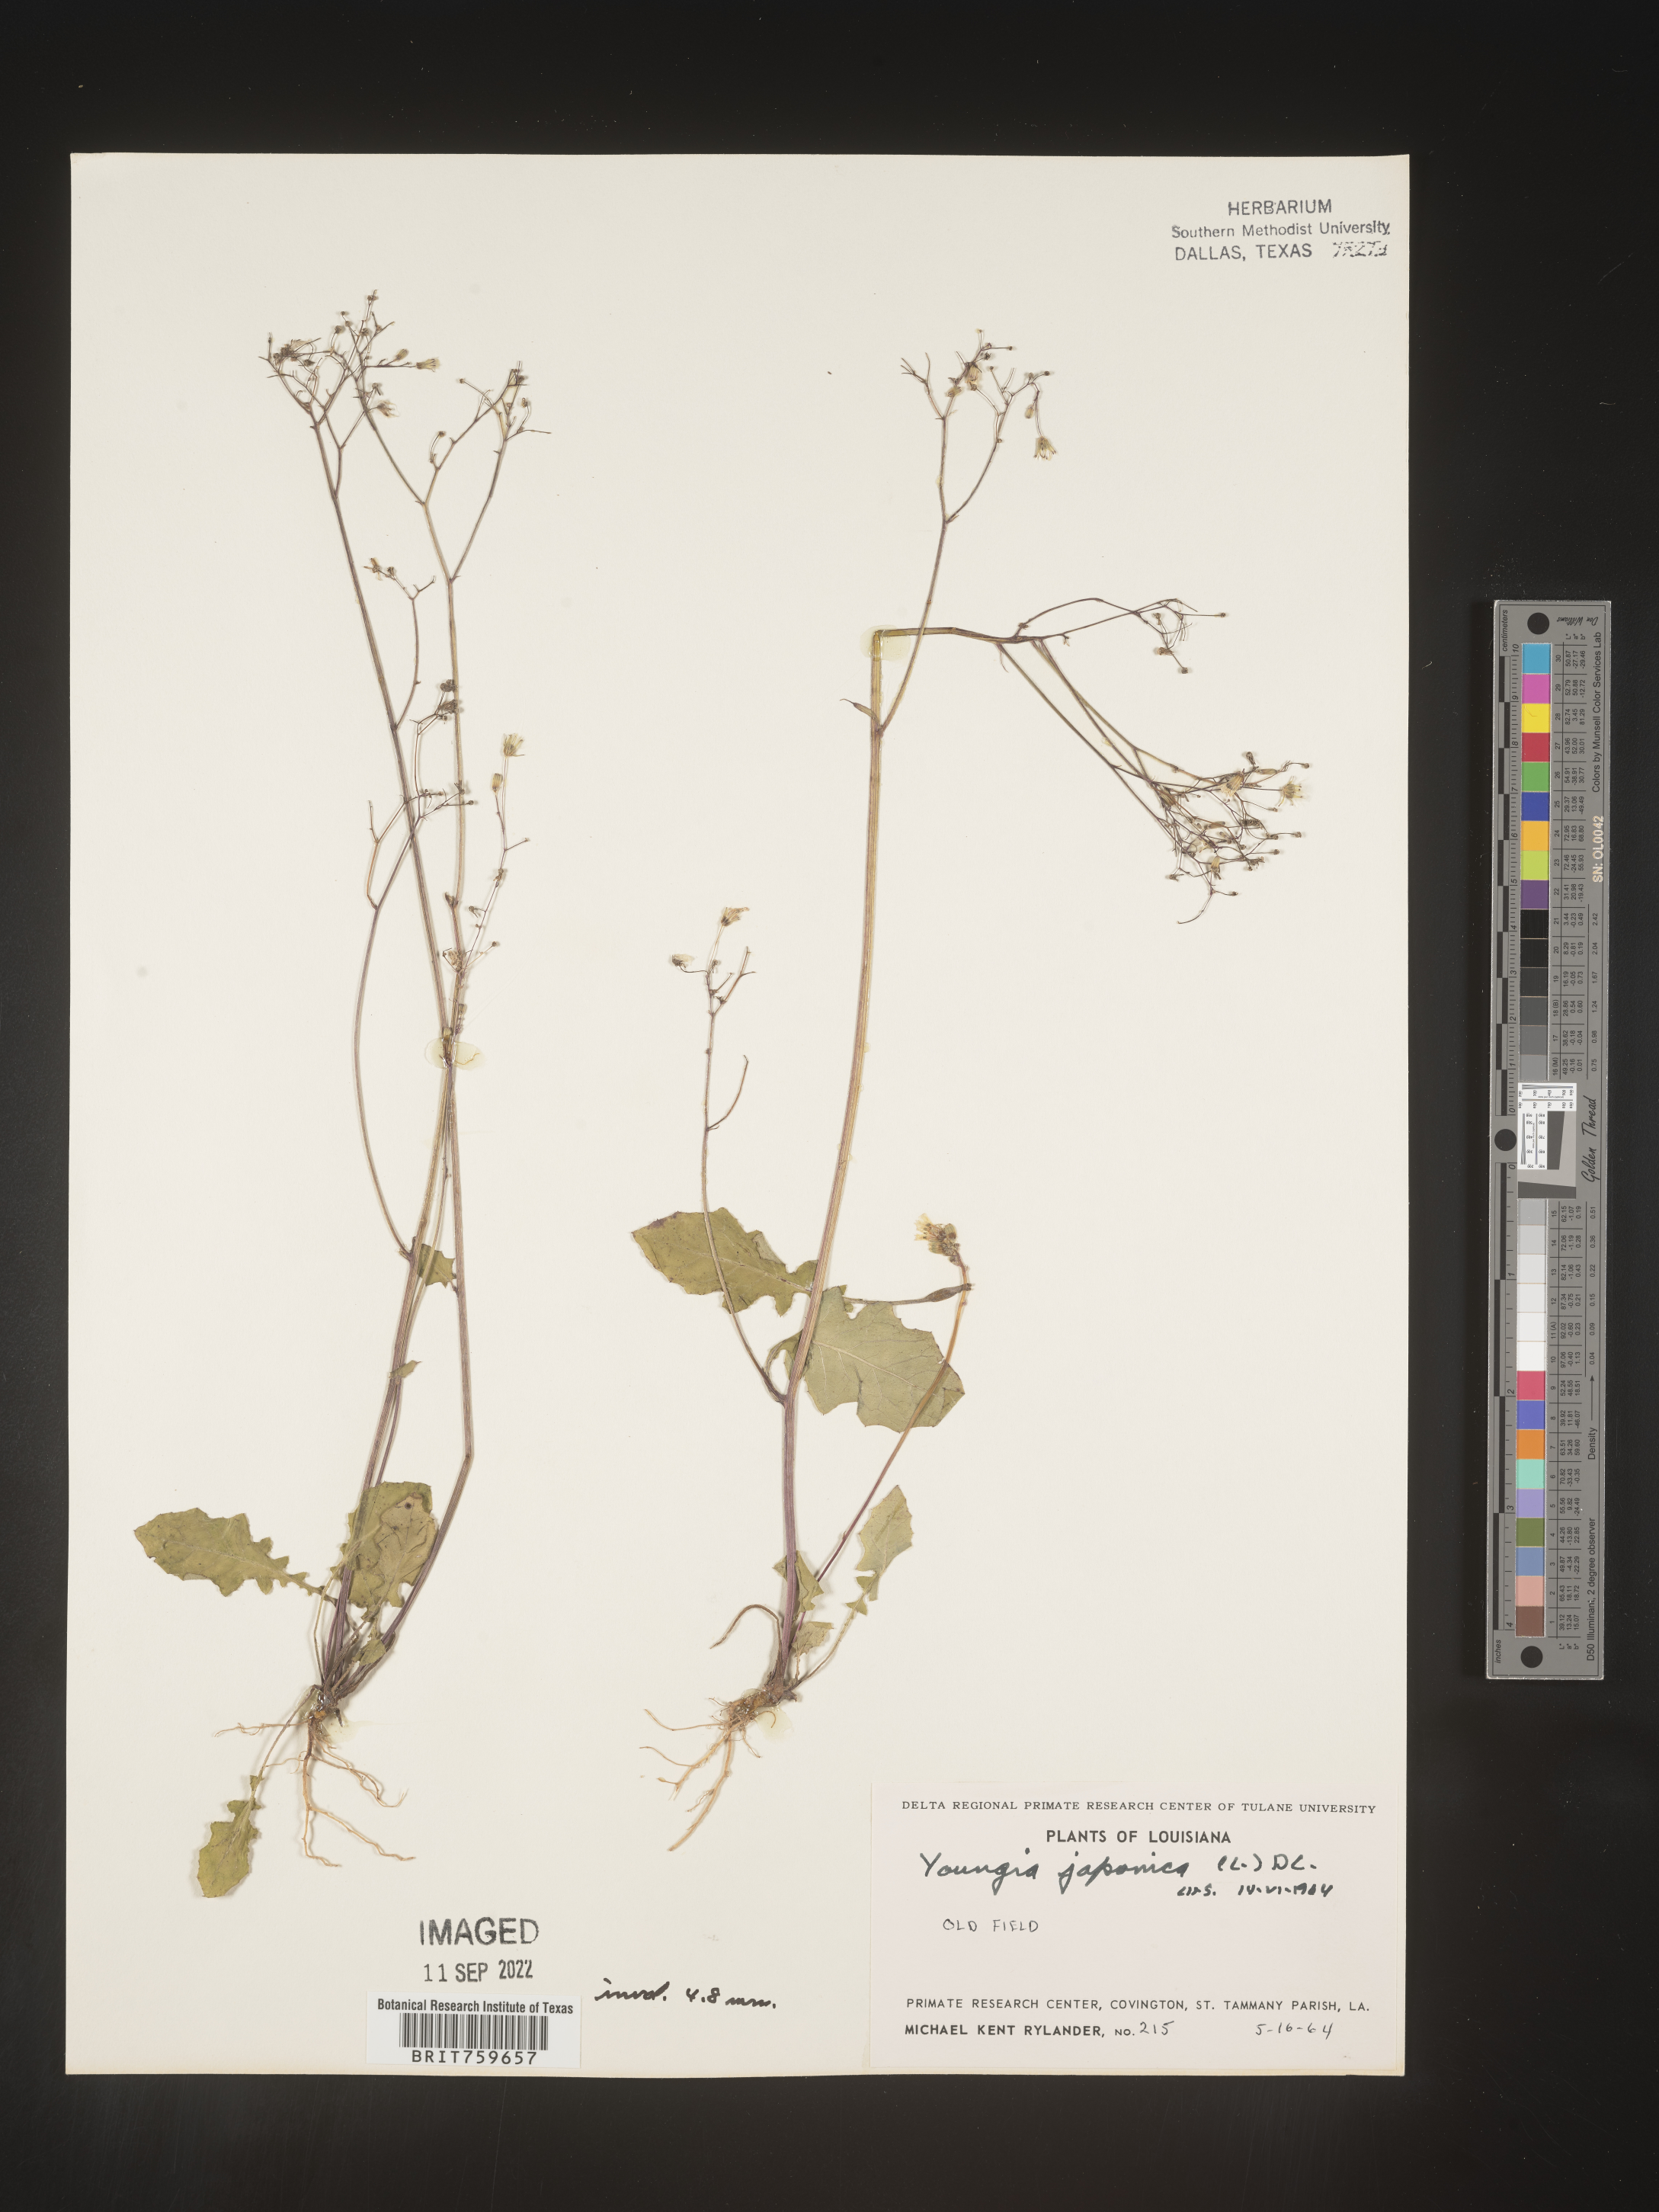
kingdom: Plantae
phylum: Tracheophyta
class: Magnoliopsida
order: Asterales
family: Asteraceae
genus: Youngia
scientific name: Youngia japonica
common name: Oriental false hawksbeard
